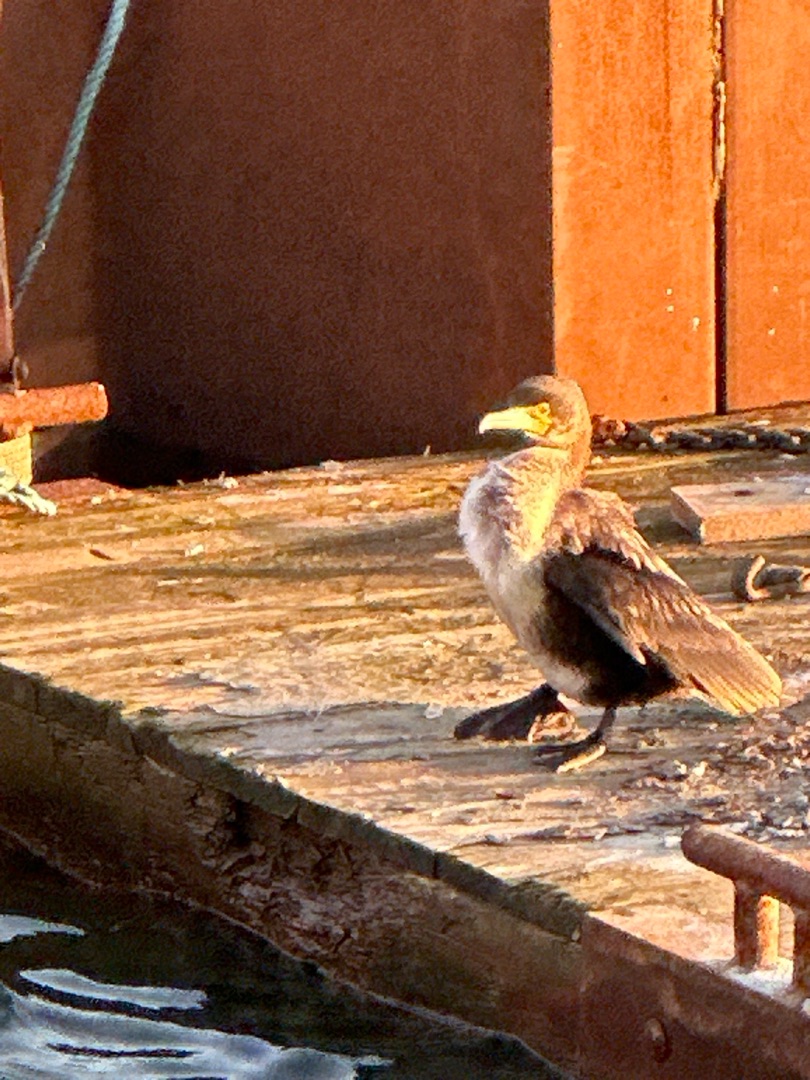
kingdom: Animalia
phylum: Chordata
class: Aves
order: Suliformes
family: Phalacrocoracidae
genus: Phalacrocorax
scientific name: Phalacrocorax carbo
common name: Skarv
